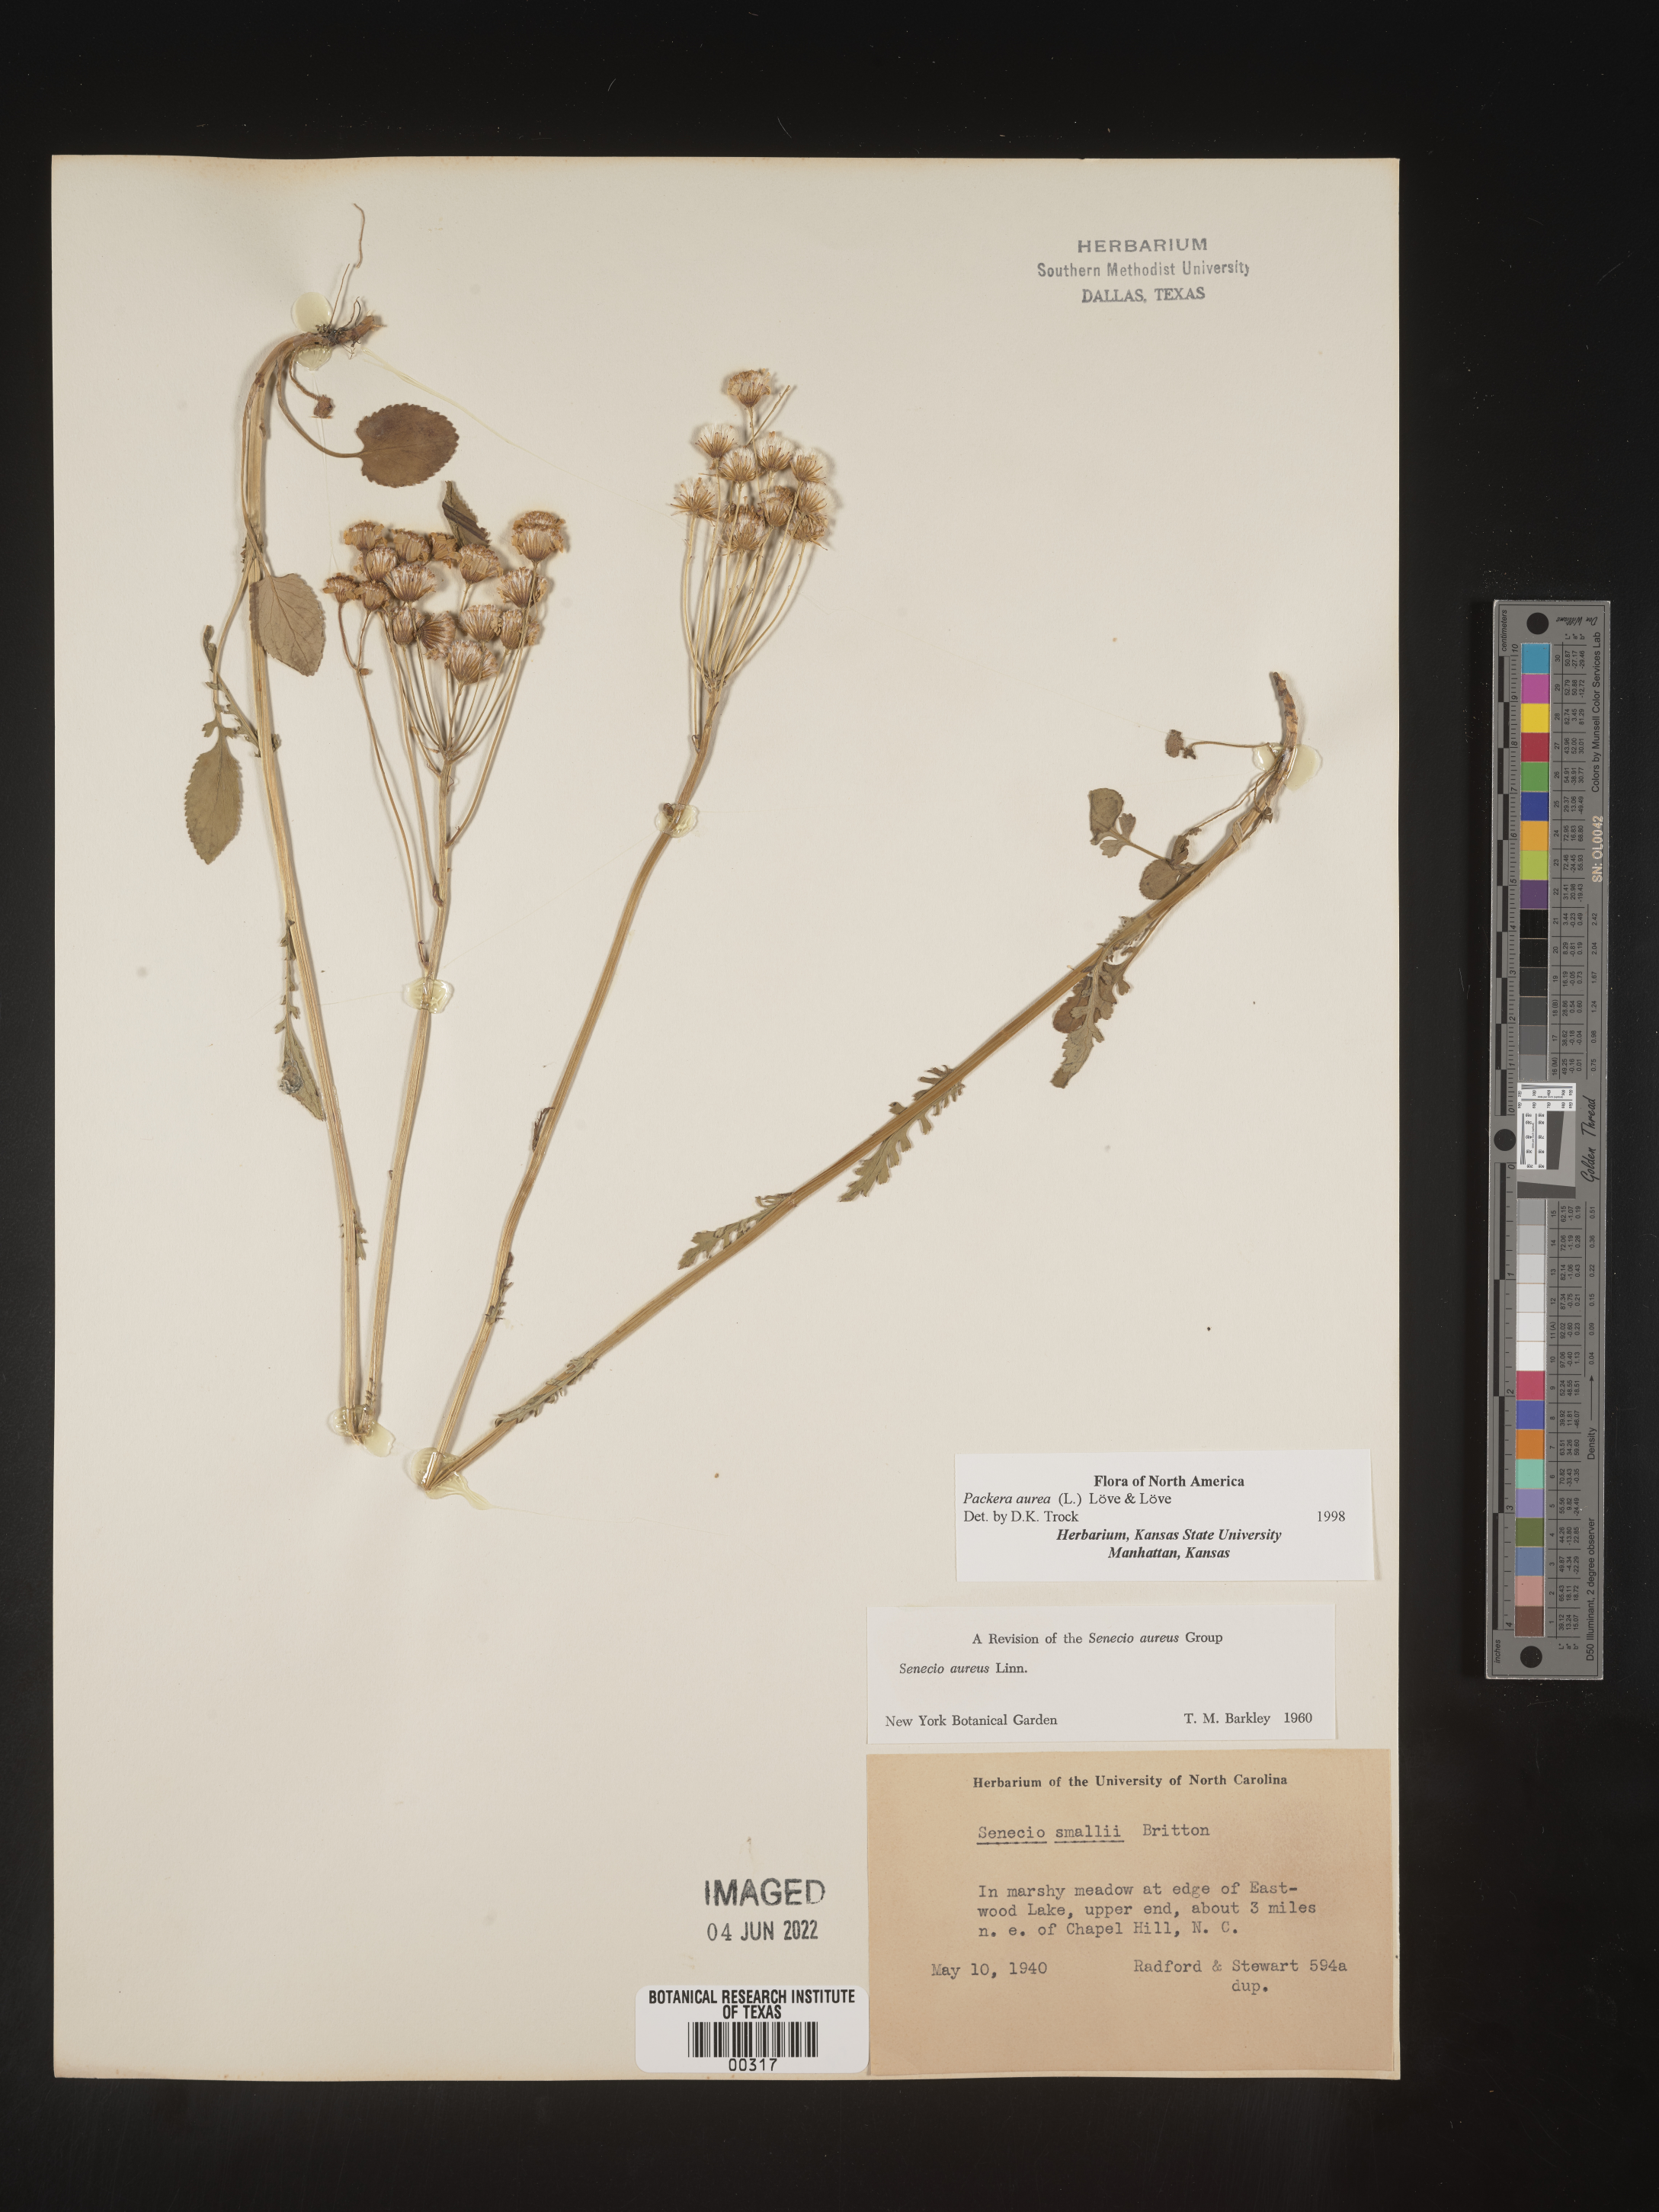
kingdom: Plantae
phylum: Tracheophyta
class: Magnoliopsida
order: Asterales
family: Asteraceae
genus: Packera
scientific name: Packera aurea
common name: Golden groundsel
